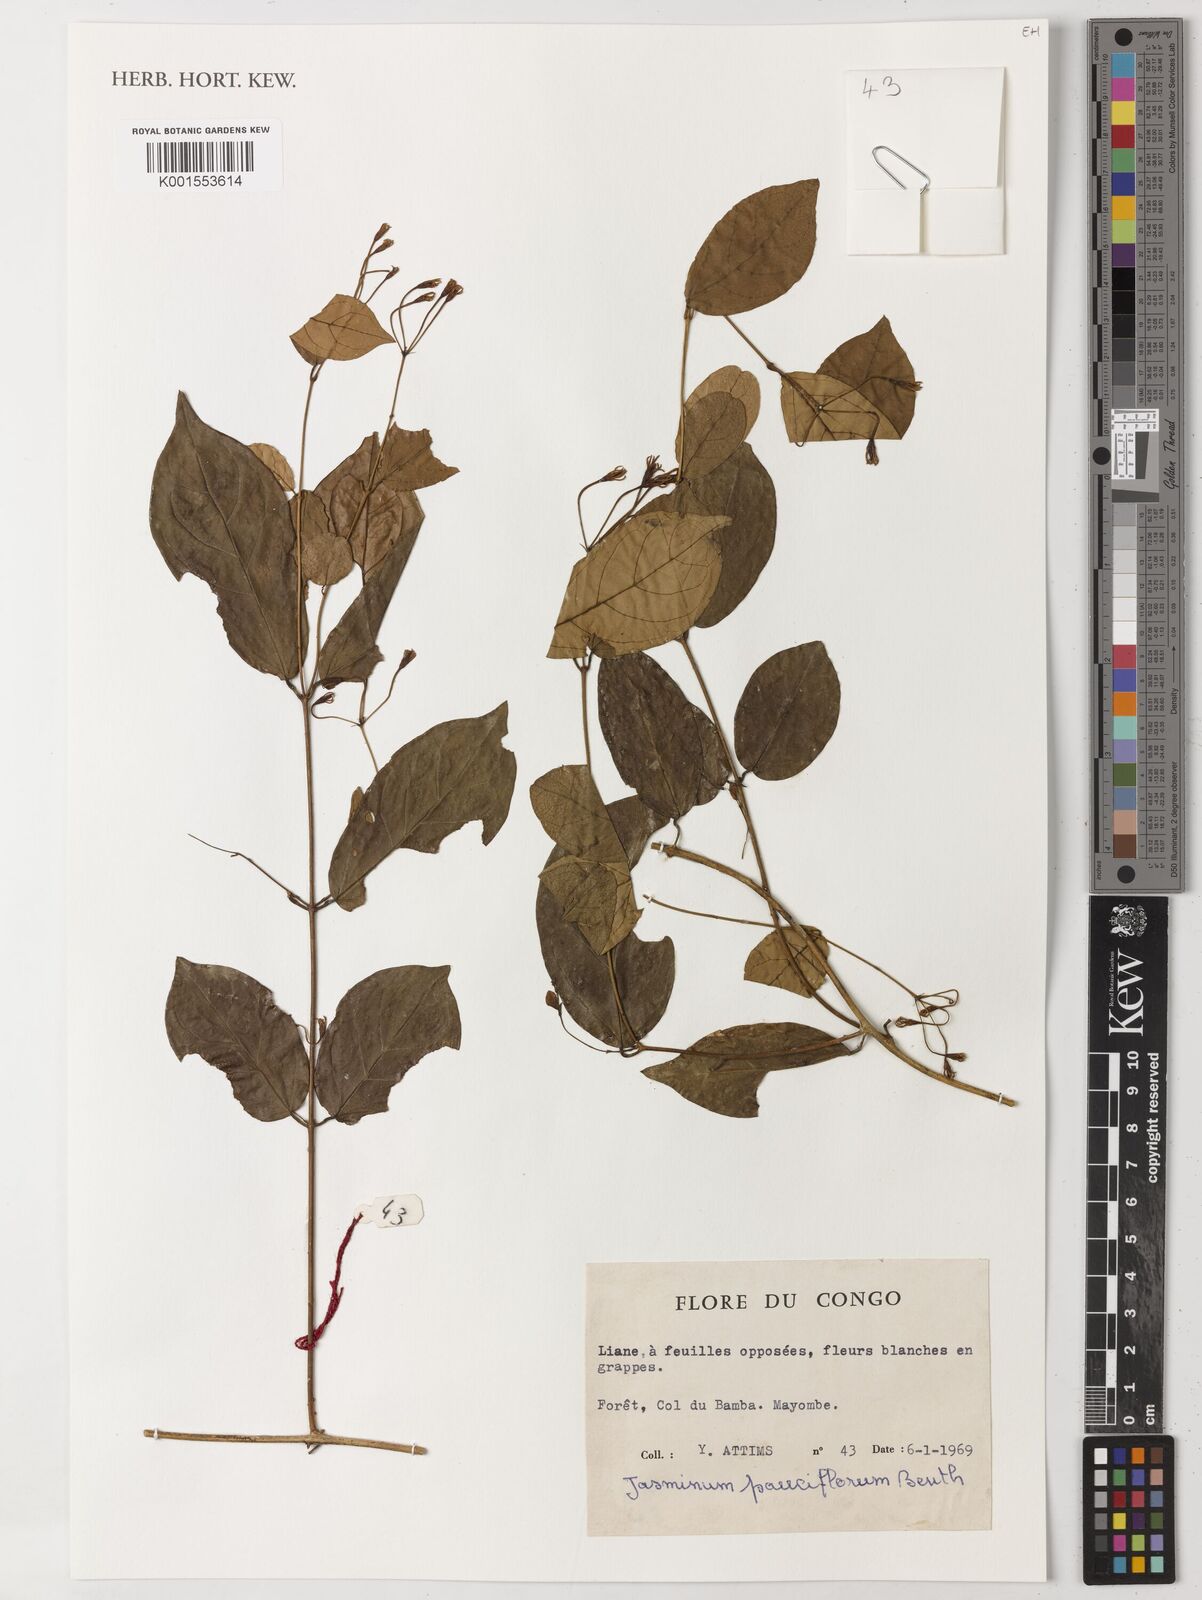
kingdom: Plantae
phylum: Tracheophyta
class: Magnoliopsida
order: Lamiales
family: Oleaceae
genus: Jasminum
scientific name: Jasminum pauciflorum
